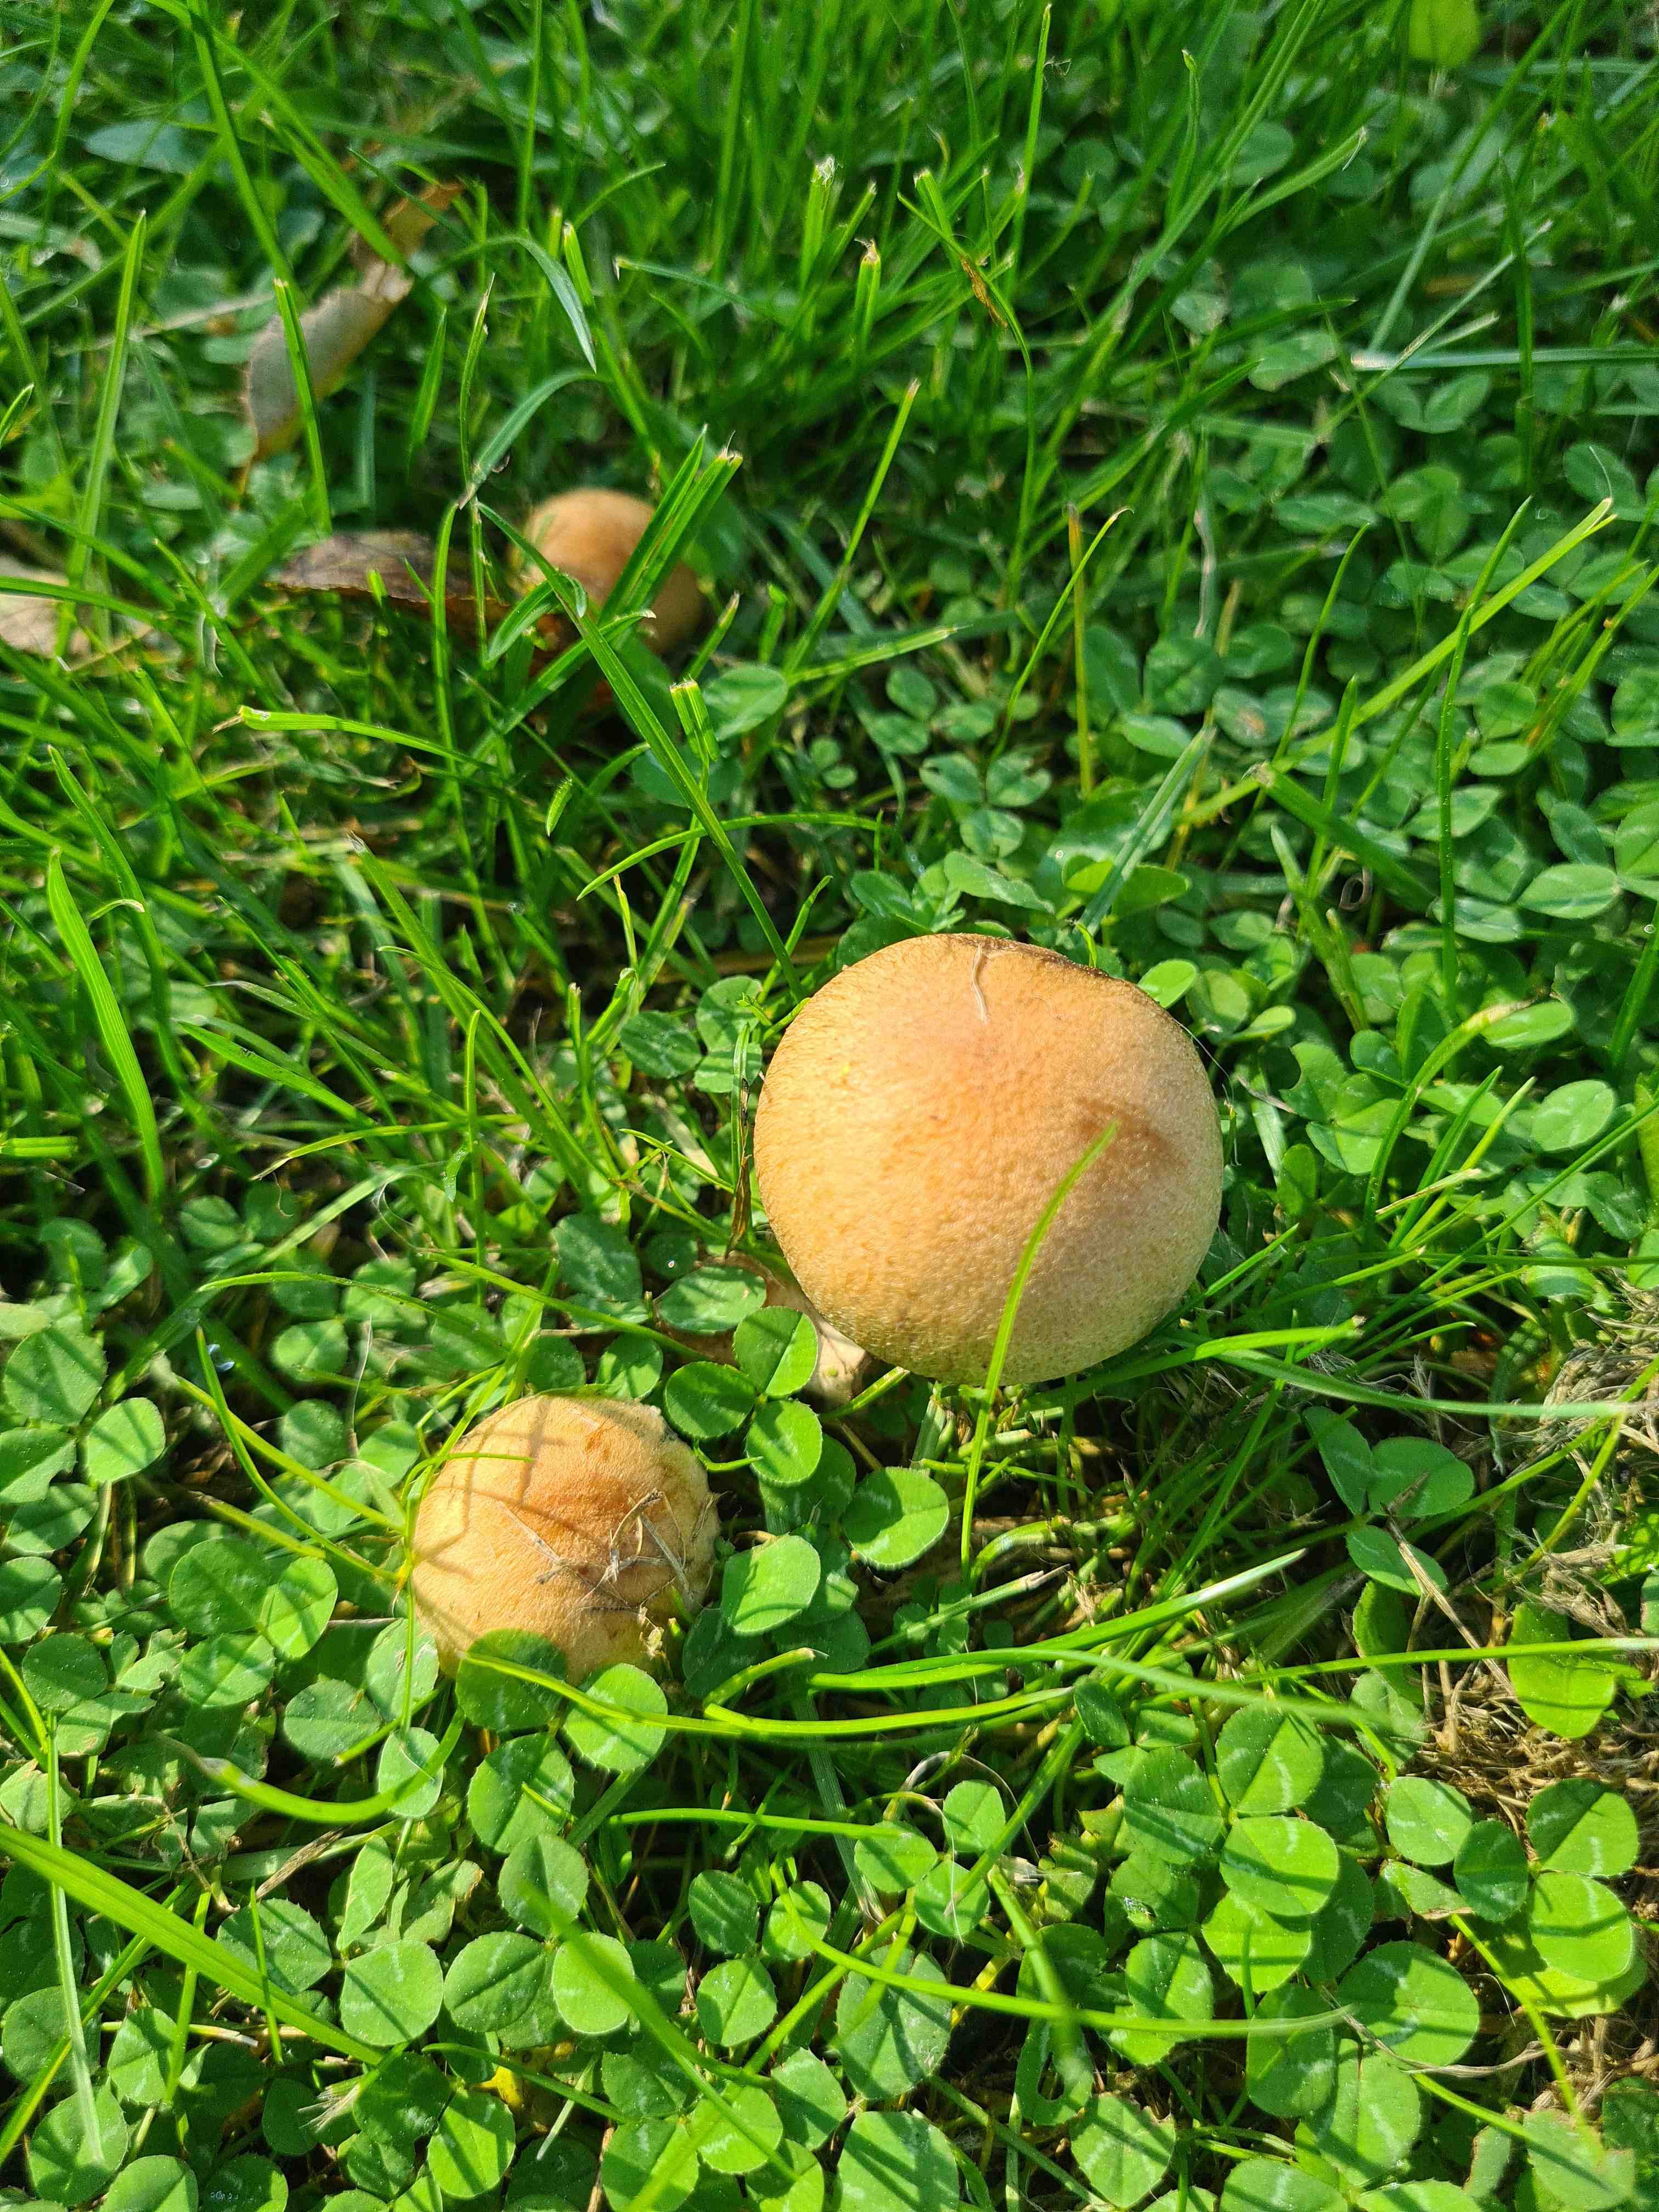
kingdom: Fungi
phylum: Basidiomycota
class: Agaricomycetes
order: Agaricales
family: Psathyrellaceae
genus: Lacrymaria
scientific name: Lacrymaria lacrymabunda
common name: grædende mørkhat
